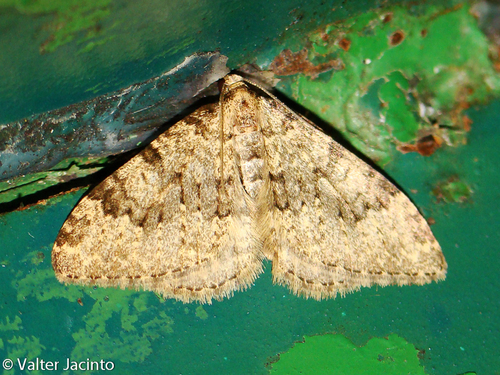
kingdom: Animalia
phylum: Arthropoda
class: Insecta
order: Lepidoptera
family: Geometridae
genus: Nebula
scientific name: Nebula ibericata
